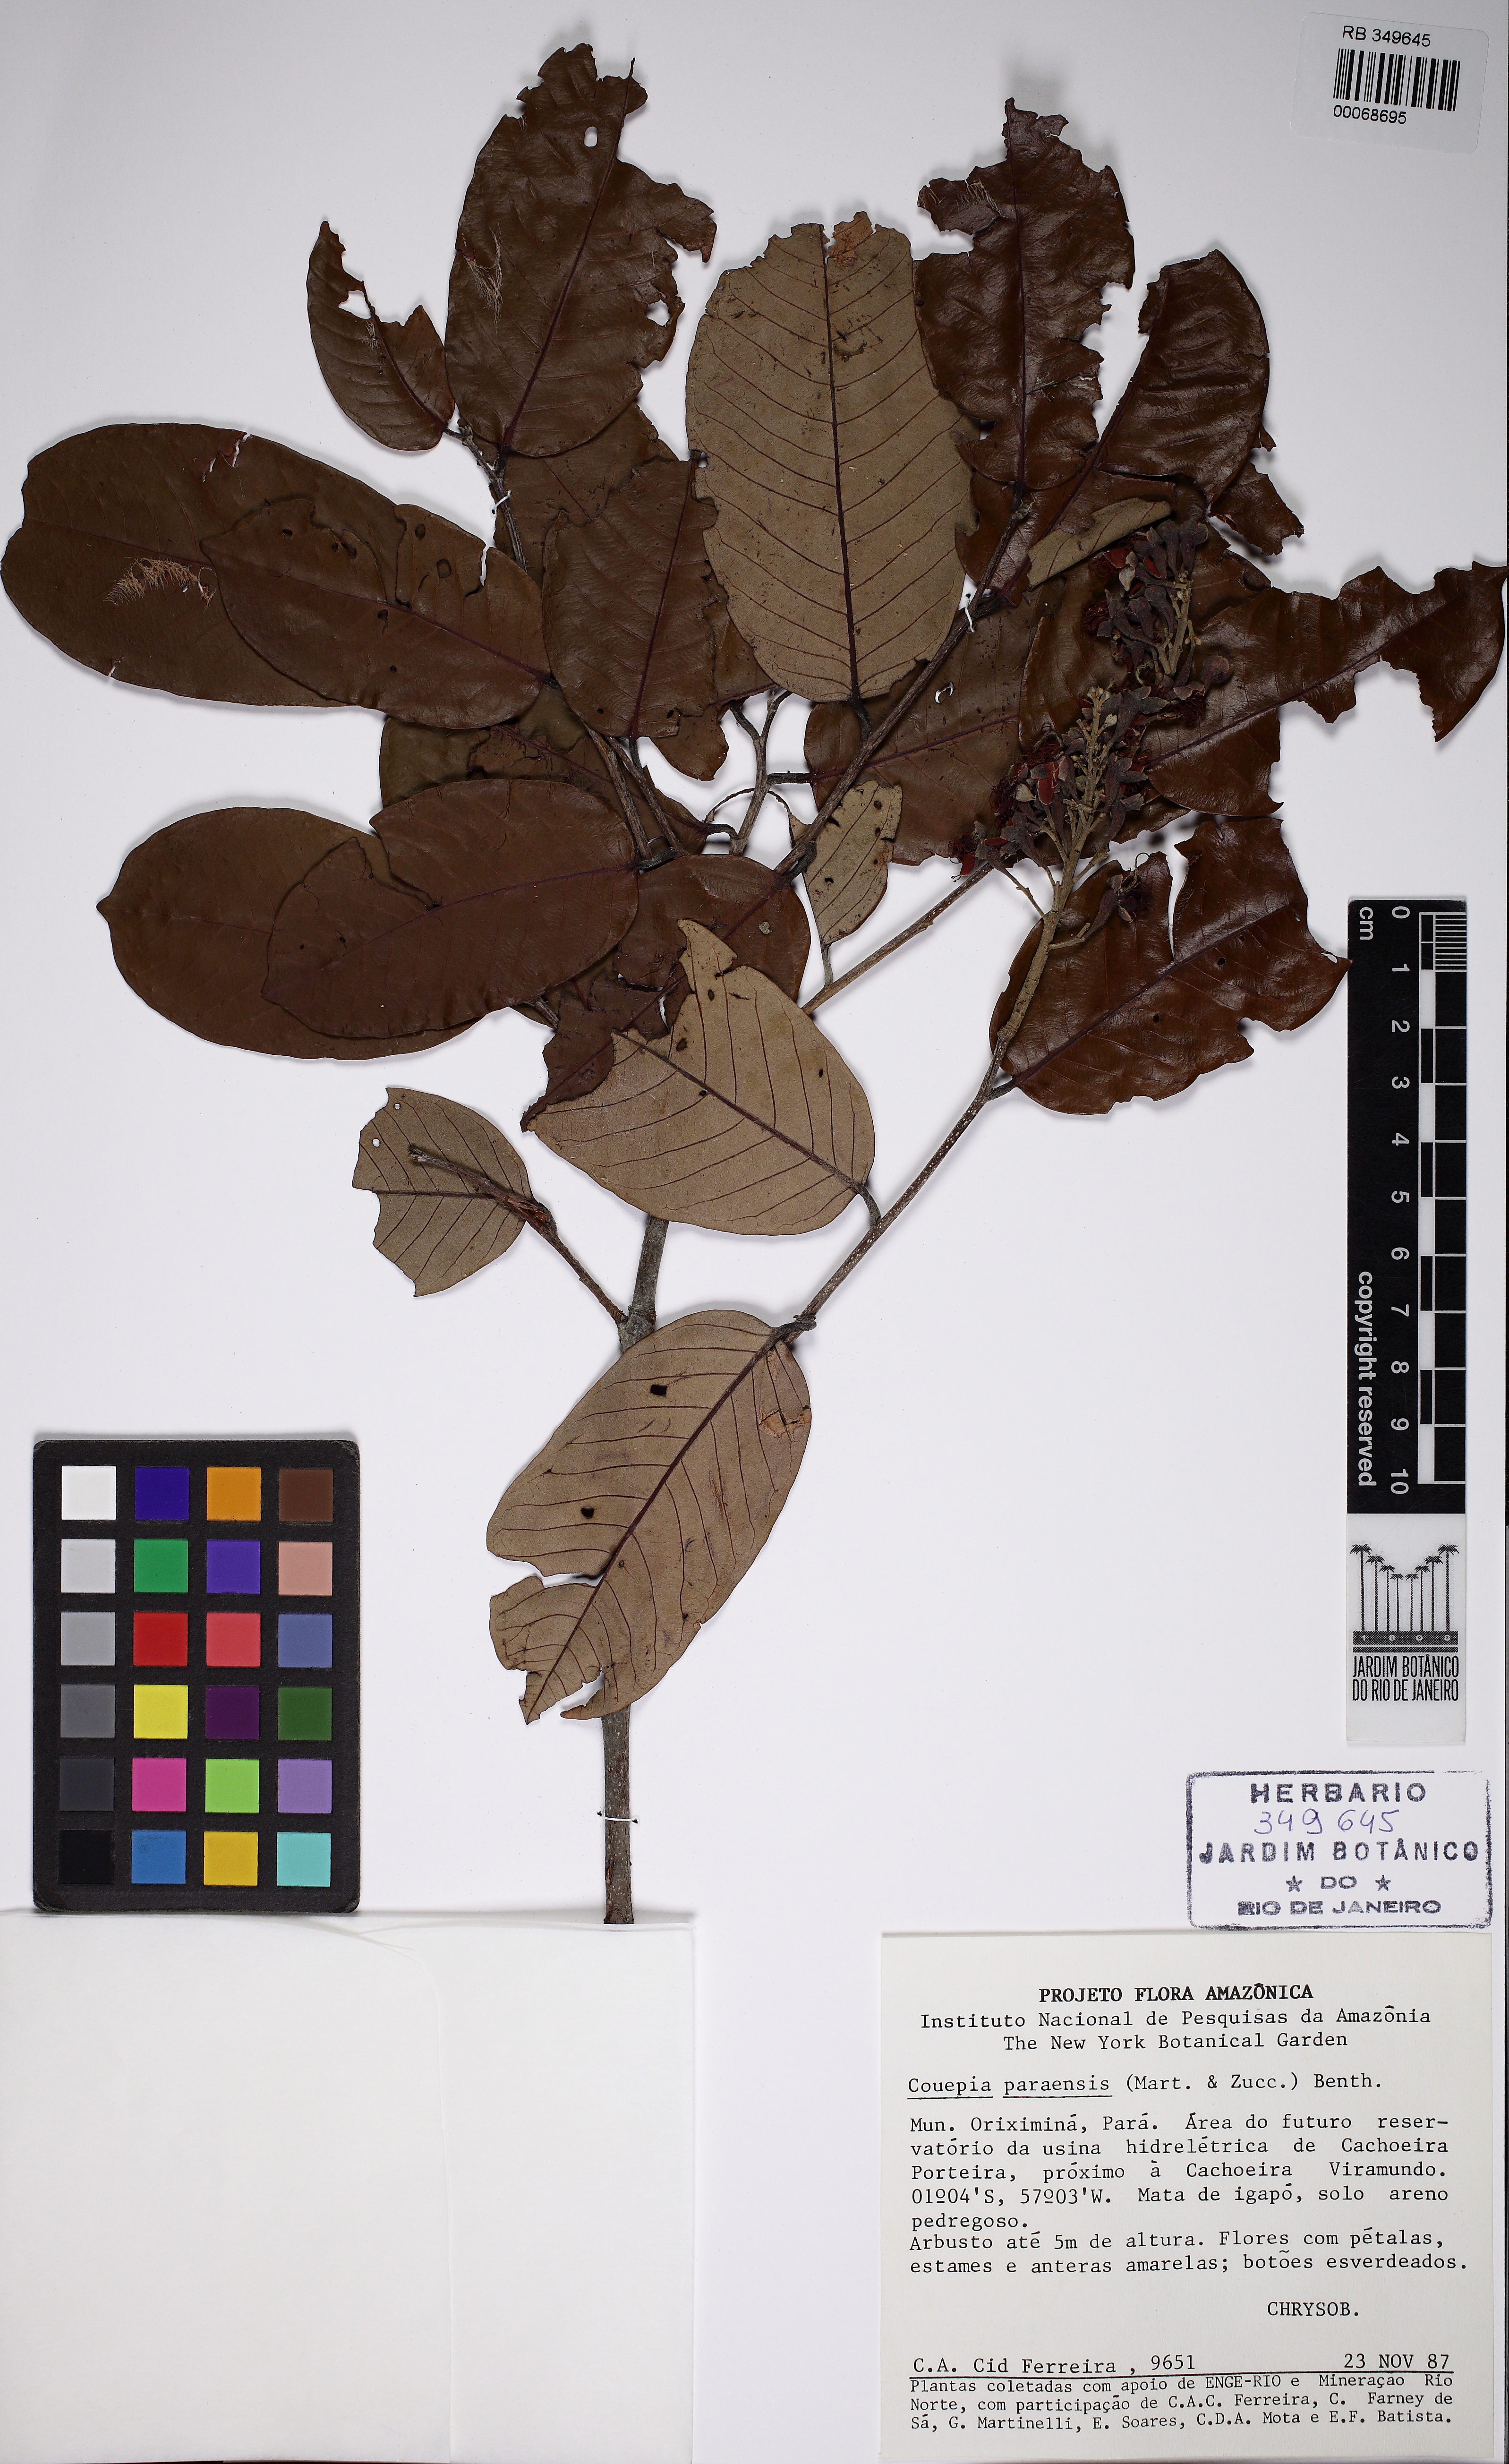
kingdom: Plantae
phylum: Tracheophyta
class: Magnoliopsida
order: Malpighiales
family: Chrysobalanaceae
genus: Couepia
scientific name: Couepia paraensis
